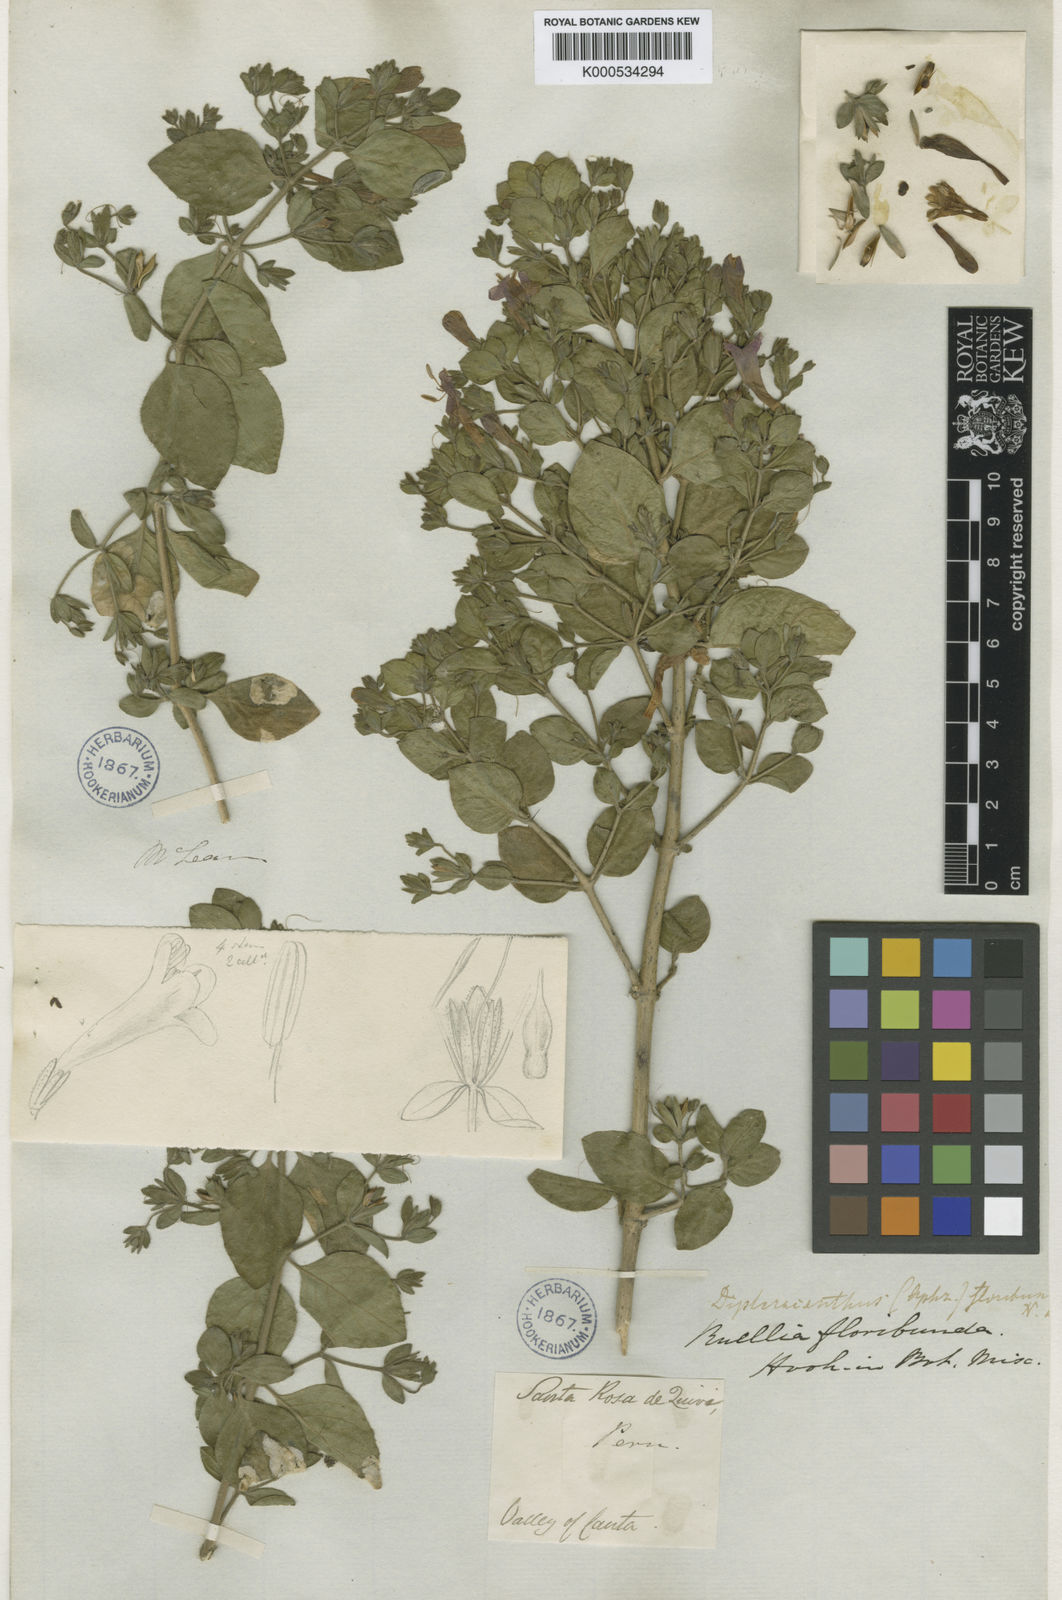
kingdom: Plantae
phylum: Tracheophyta
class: Magnoliopsida
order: Lamiales
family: Acanthaceae
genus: Ruellia
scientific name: Ruellia floribunda
